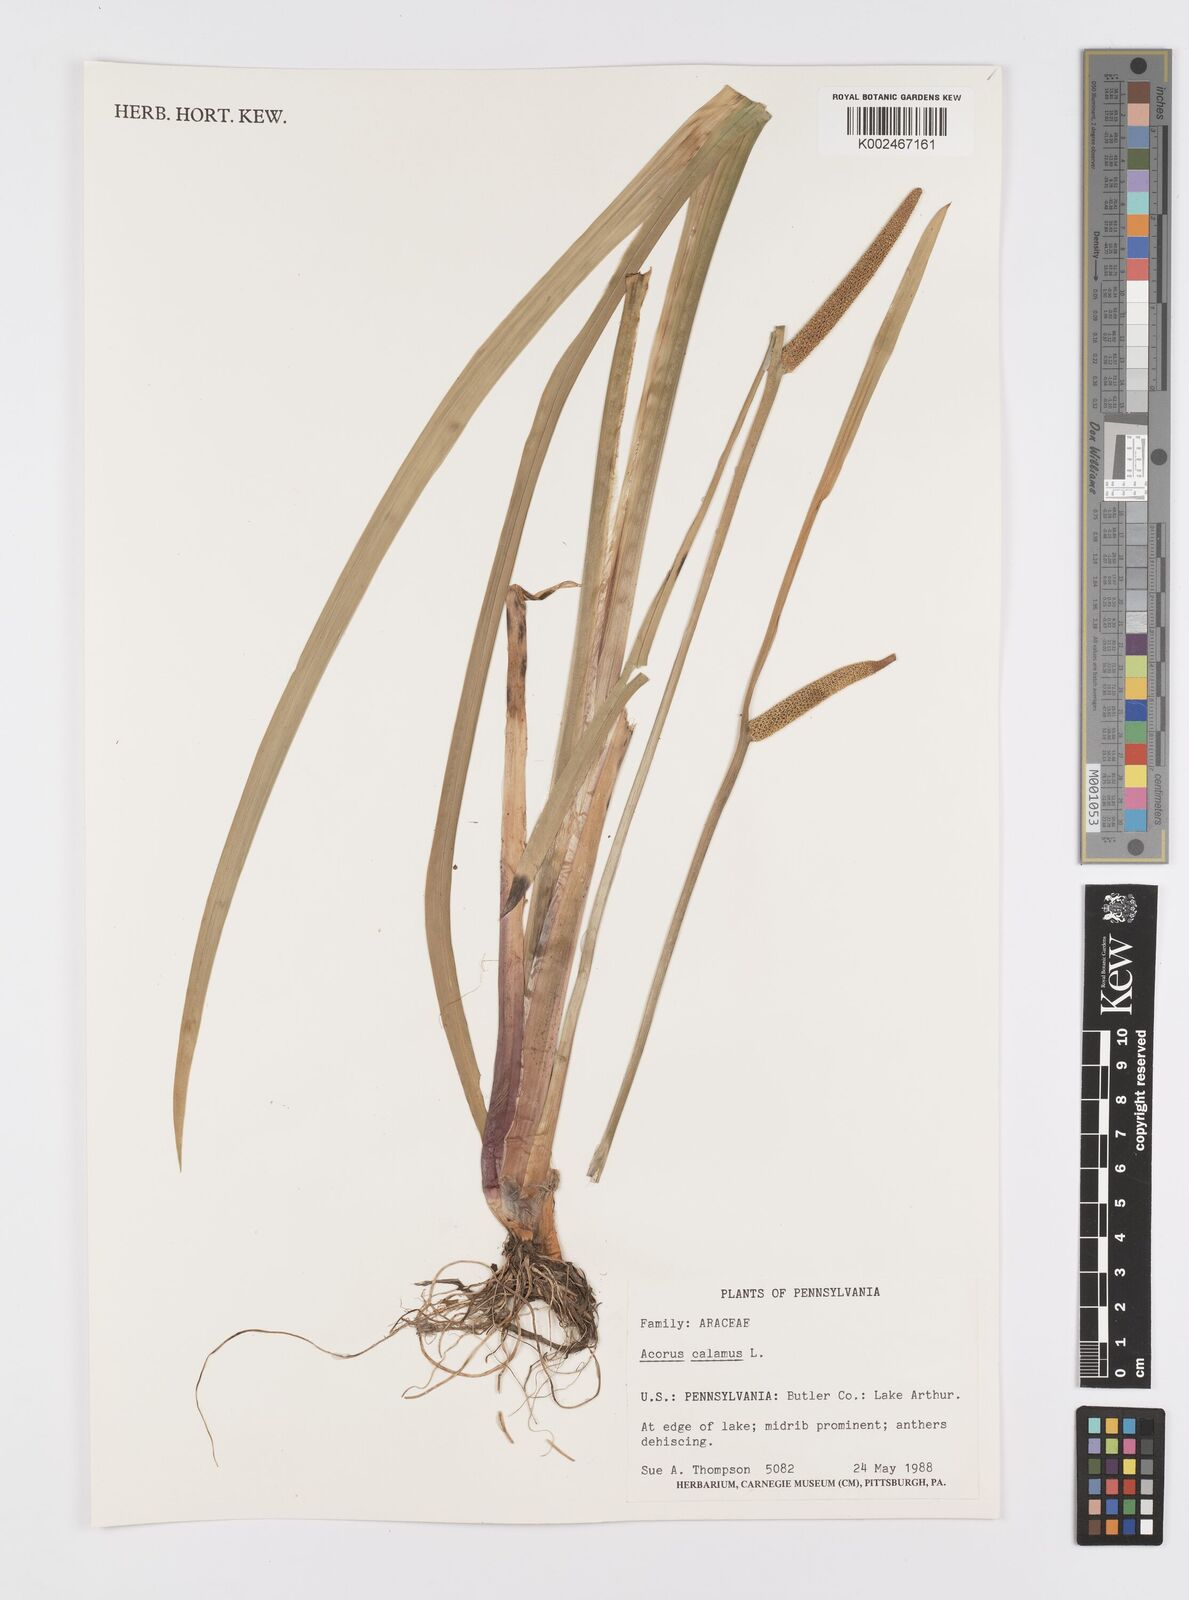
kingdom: Plantae
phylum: Tracheophyta
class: Liliopsida
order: Acorales
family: Acoraceae
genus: Acorus
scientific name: Acorus calamus
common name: Sweet-flag
